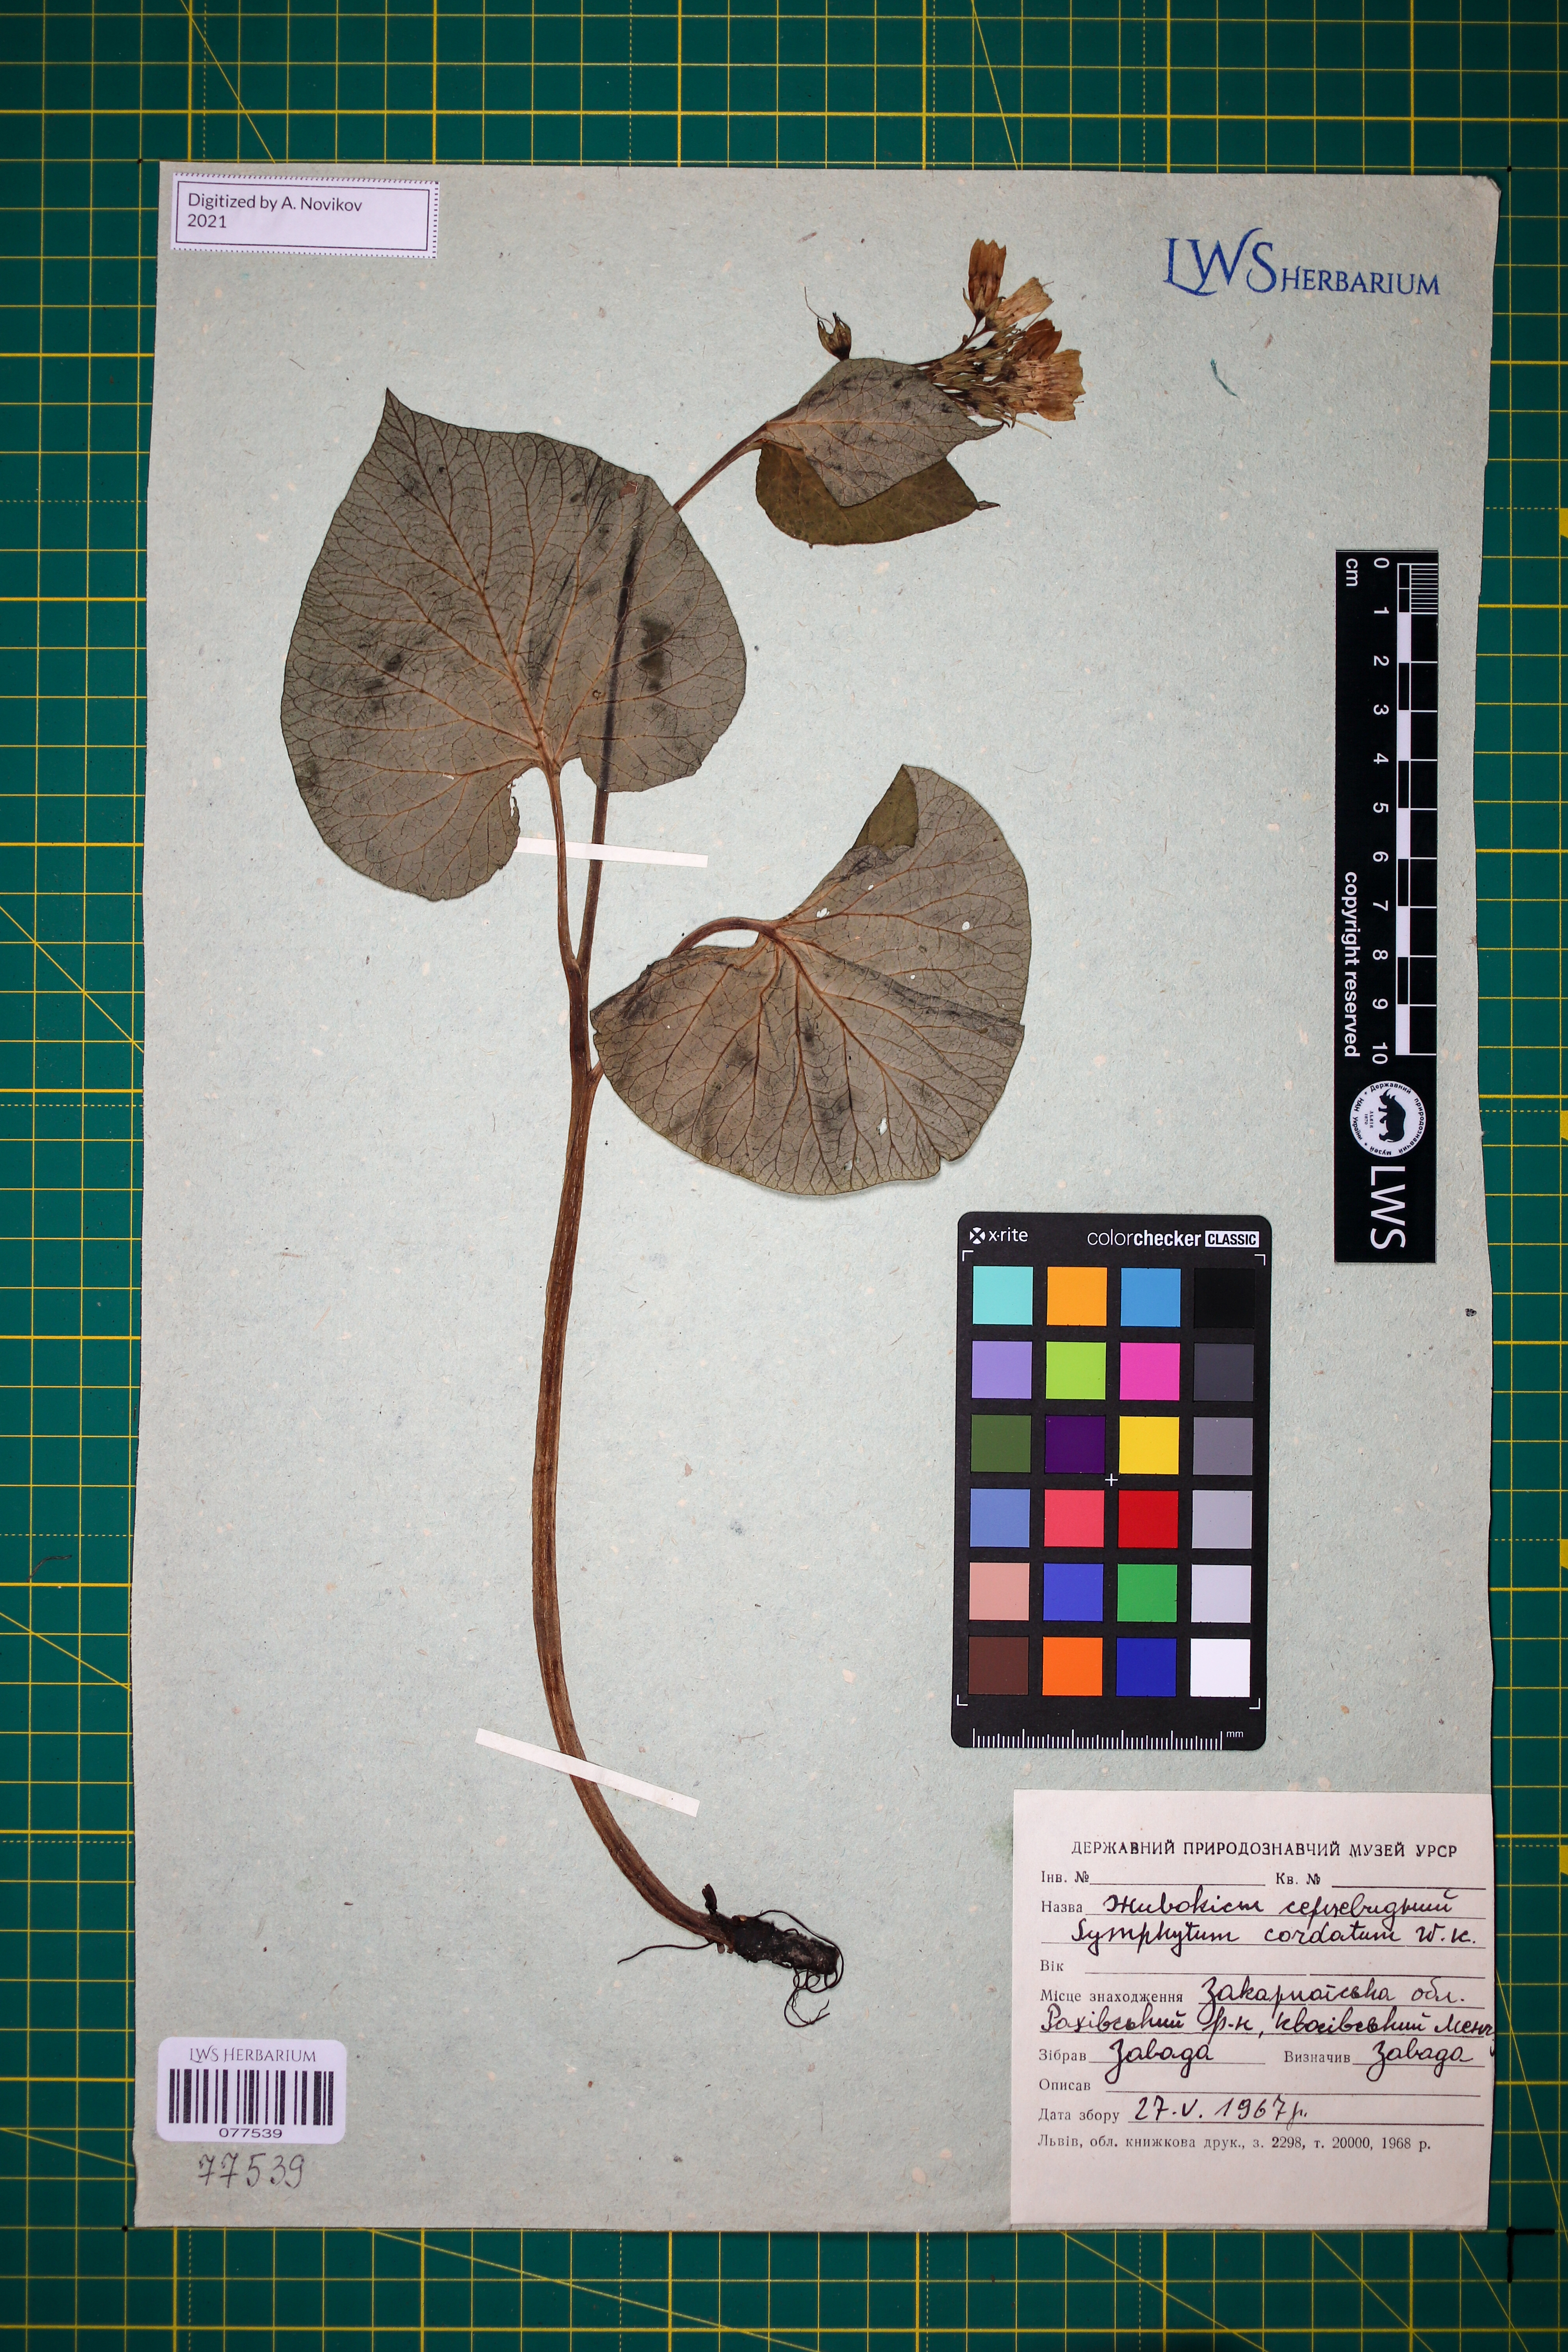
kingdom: Plantae
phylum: Tracheophyta
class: Magnoliopsida
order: Boraginales
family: Boraginaceae
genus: Symphytum
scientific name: Symphytum cordatum
